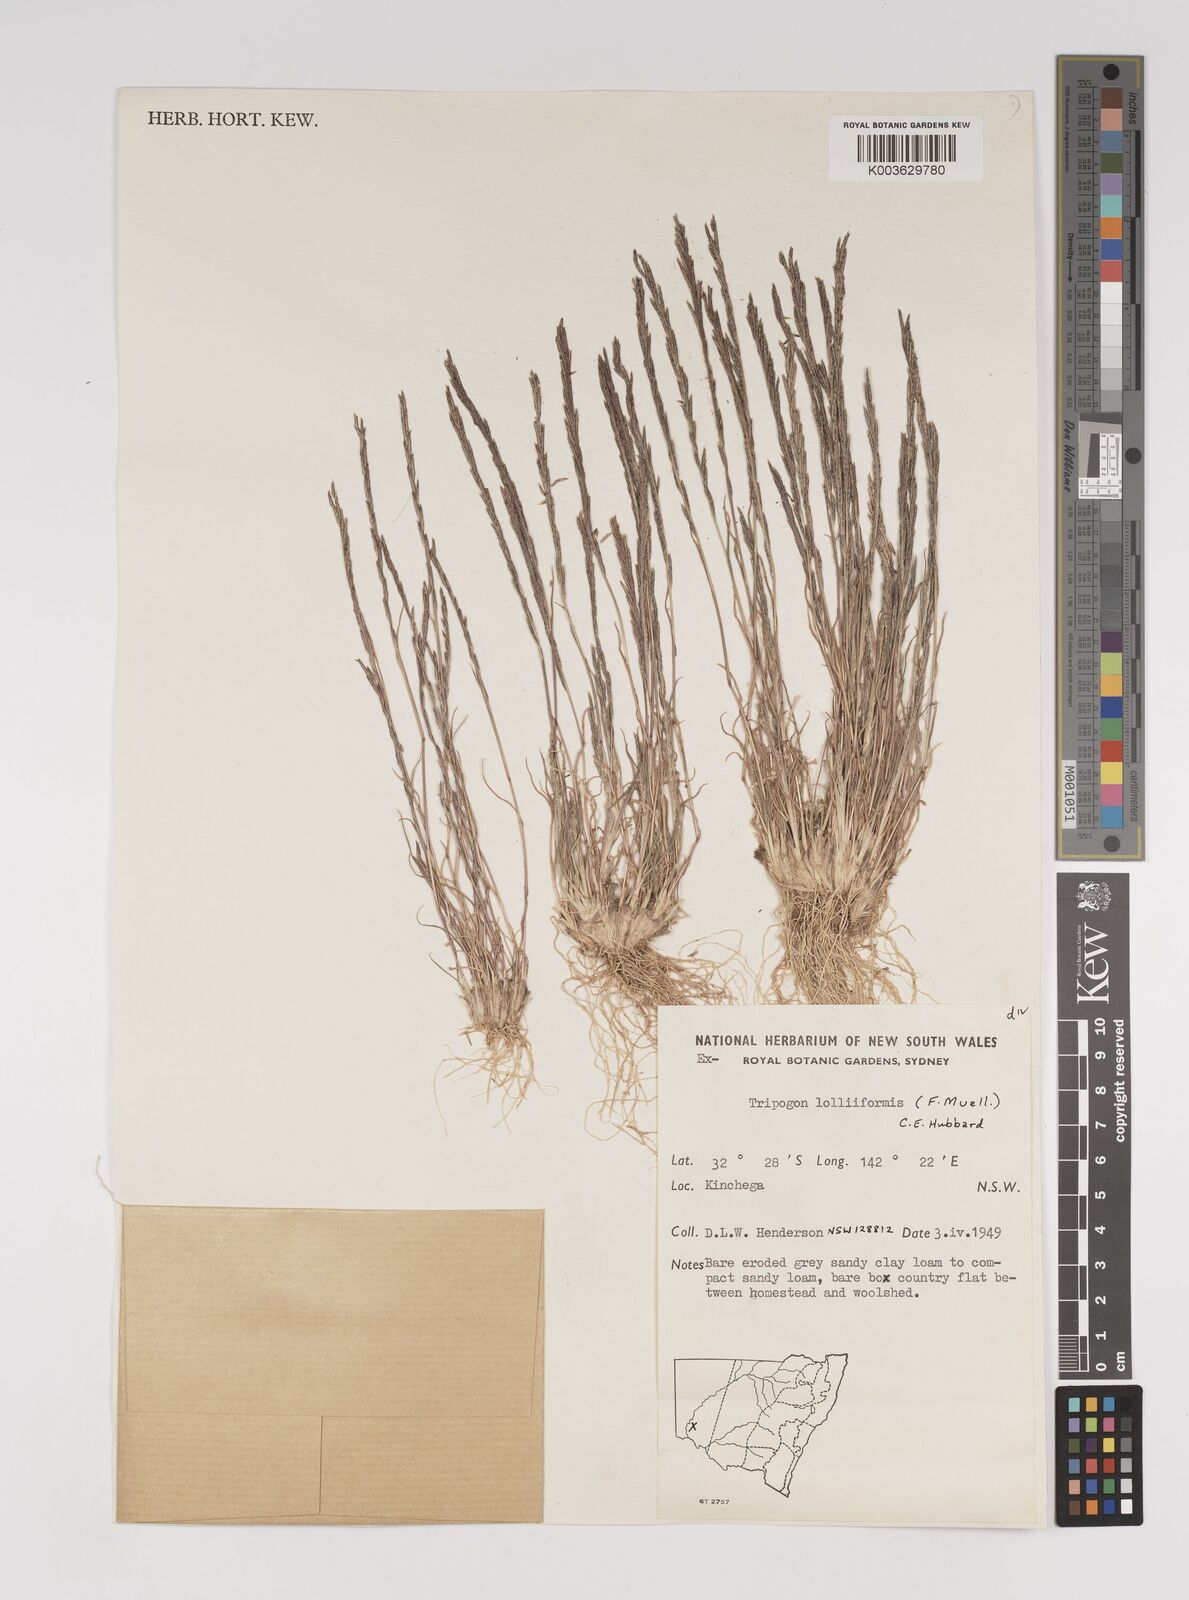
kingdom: Plantae
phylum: Tracheophyta
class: Liliopsida
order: Poales
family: Poaceae
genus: Tripogonella
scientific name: Tripogonella loliiformis
